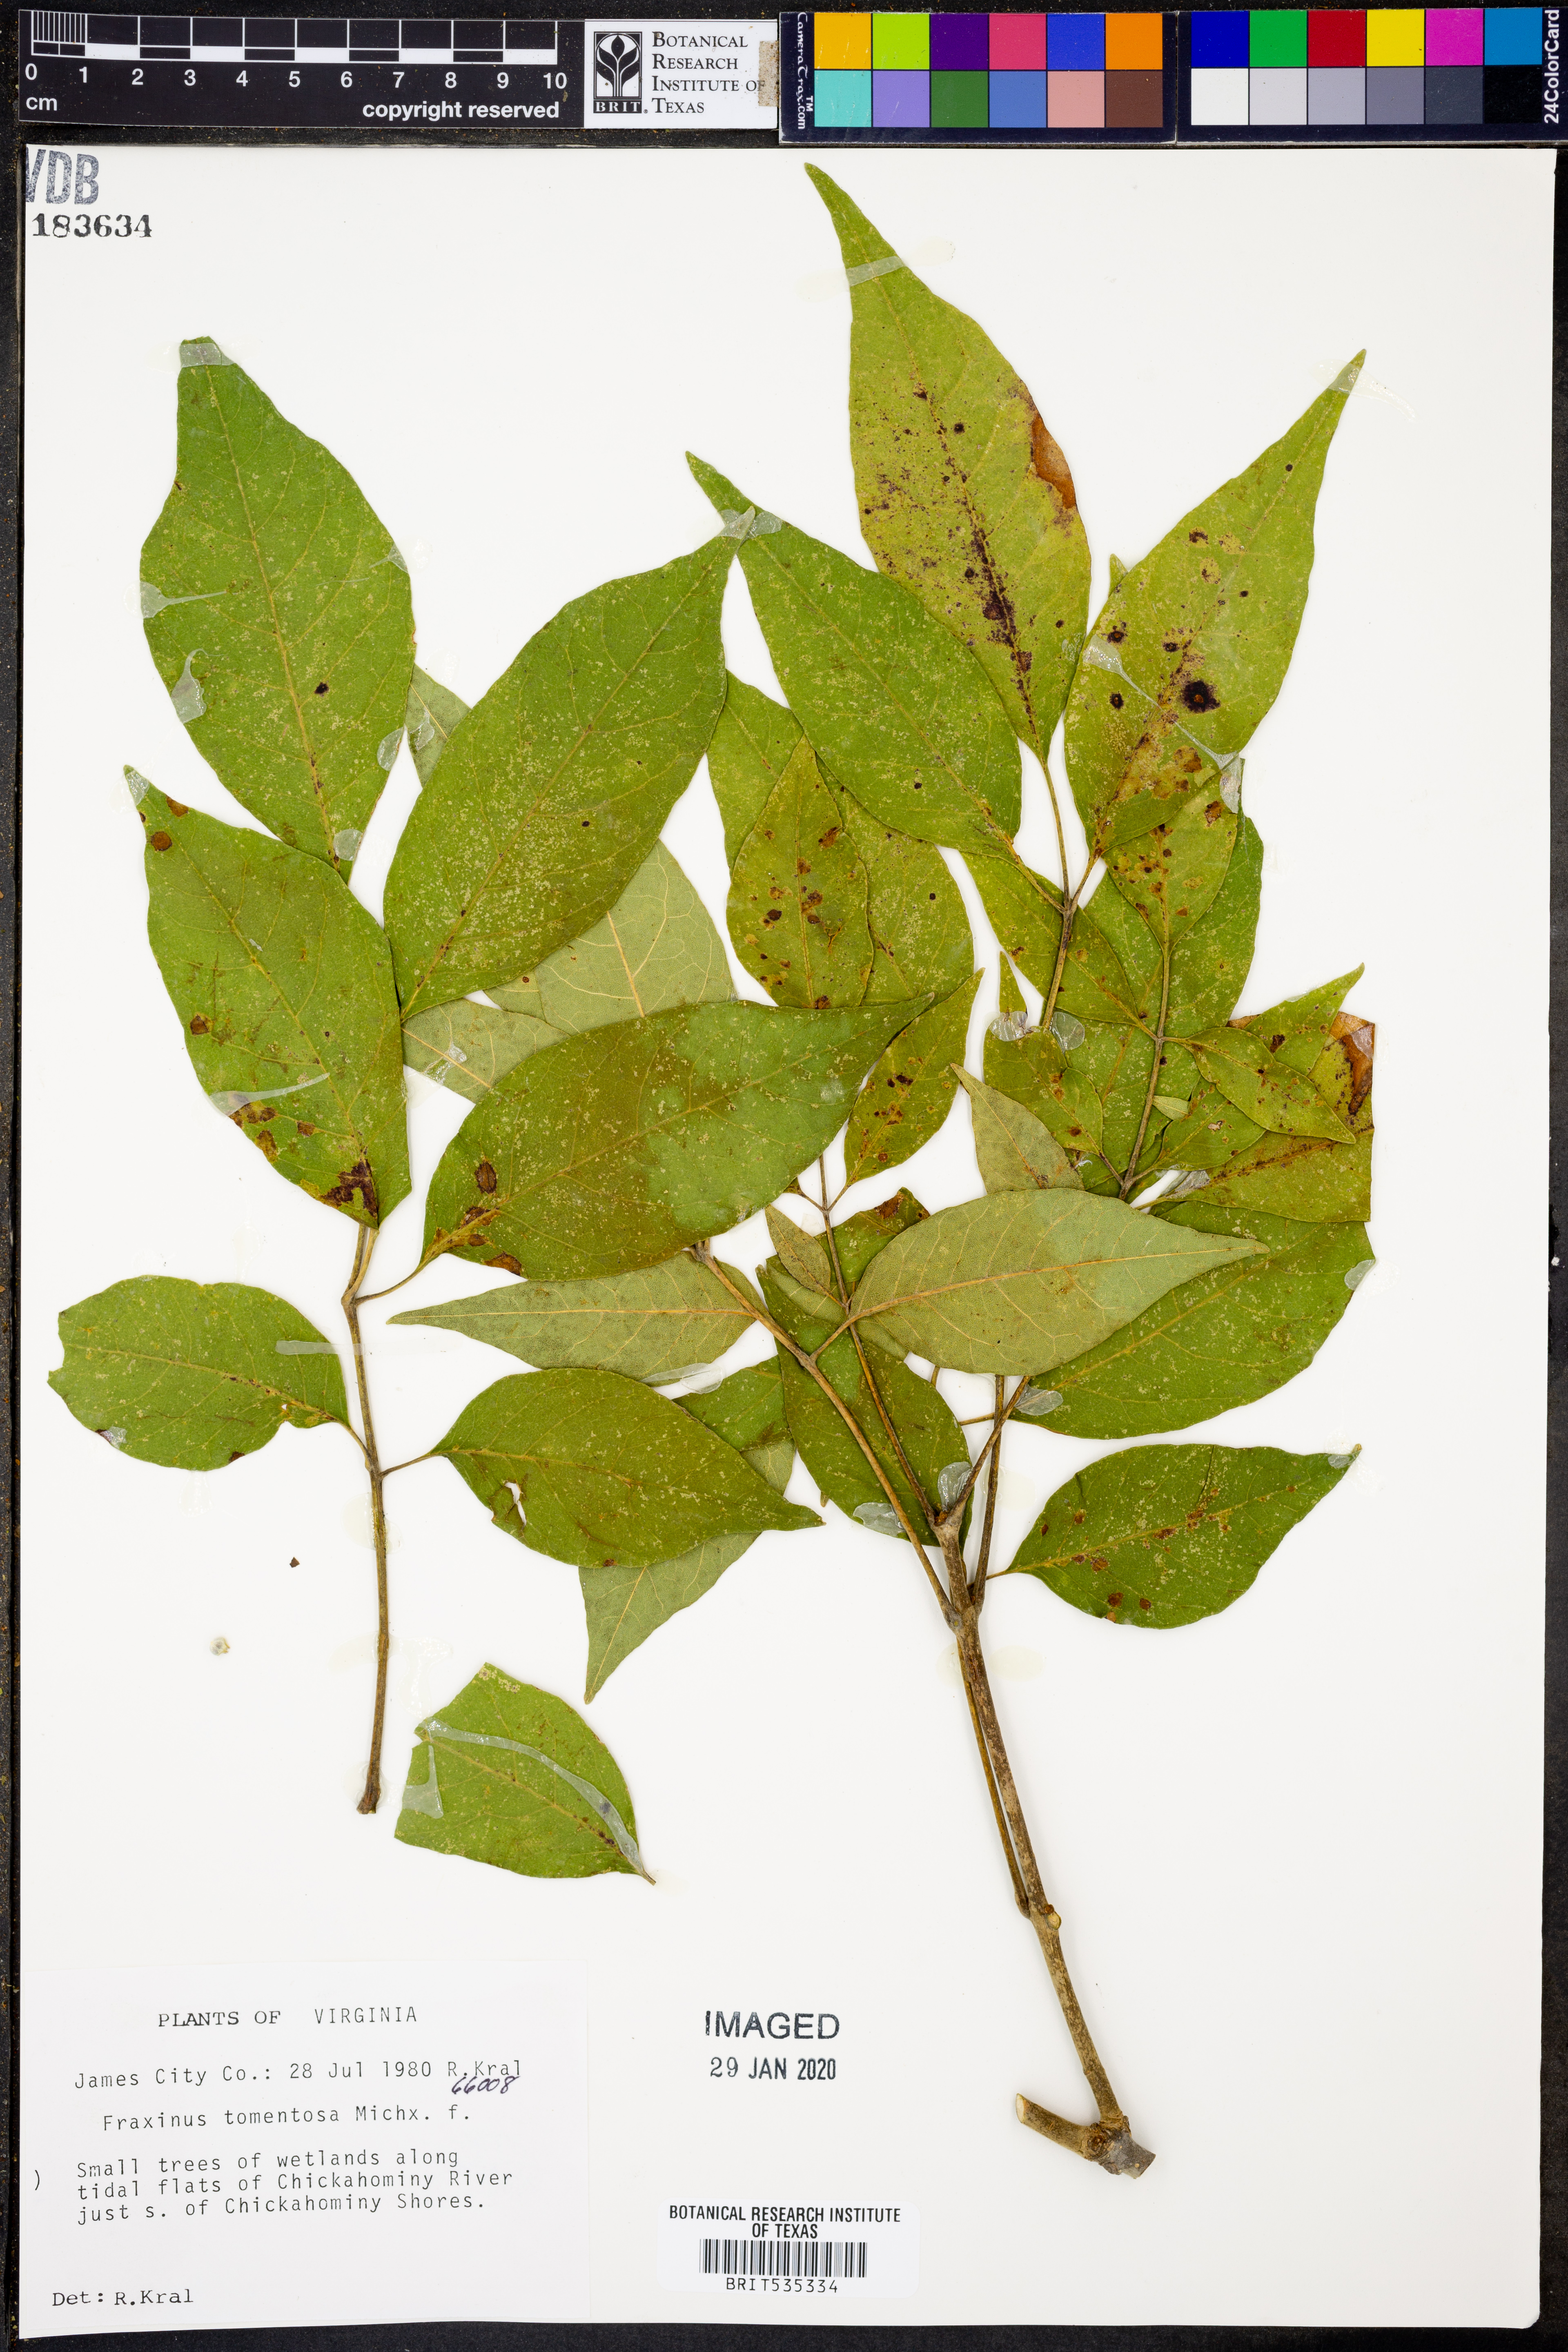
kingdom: Plantae
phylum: Tracheophyta
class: Magnoliopsida
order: Lamiales
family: Oleaceae
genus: Fraxinus
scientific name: Fraxinus profunda
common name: Pumpkin ash
